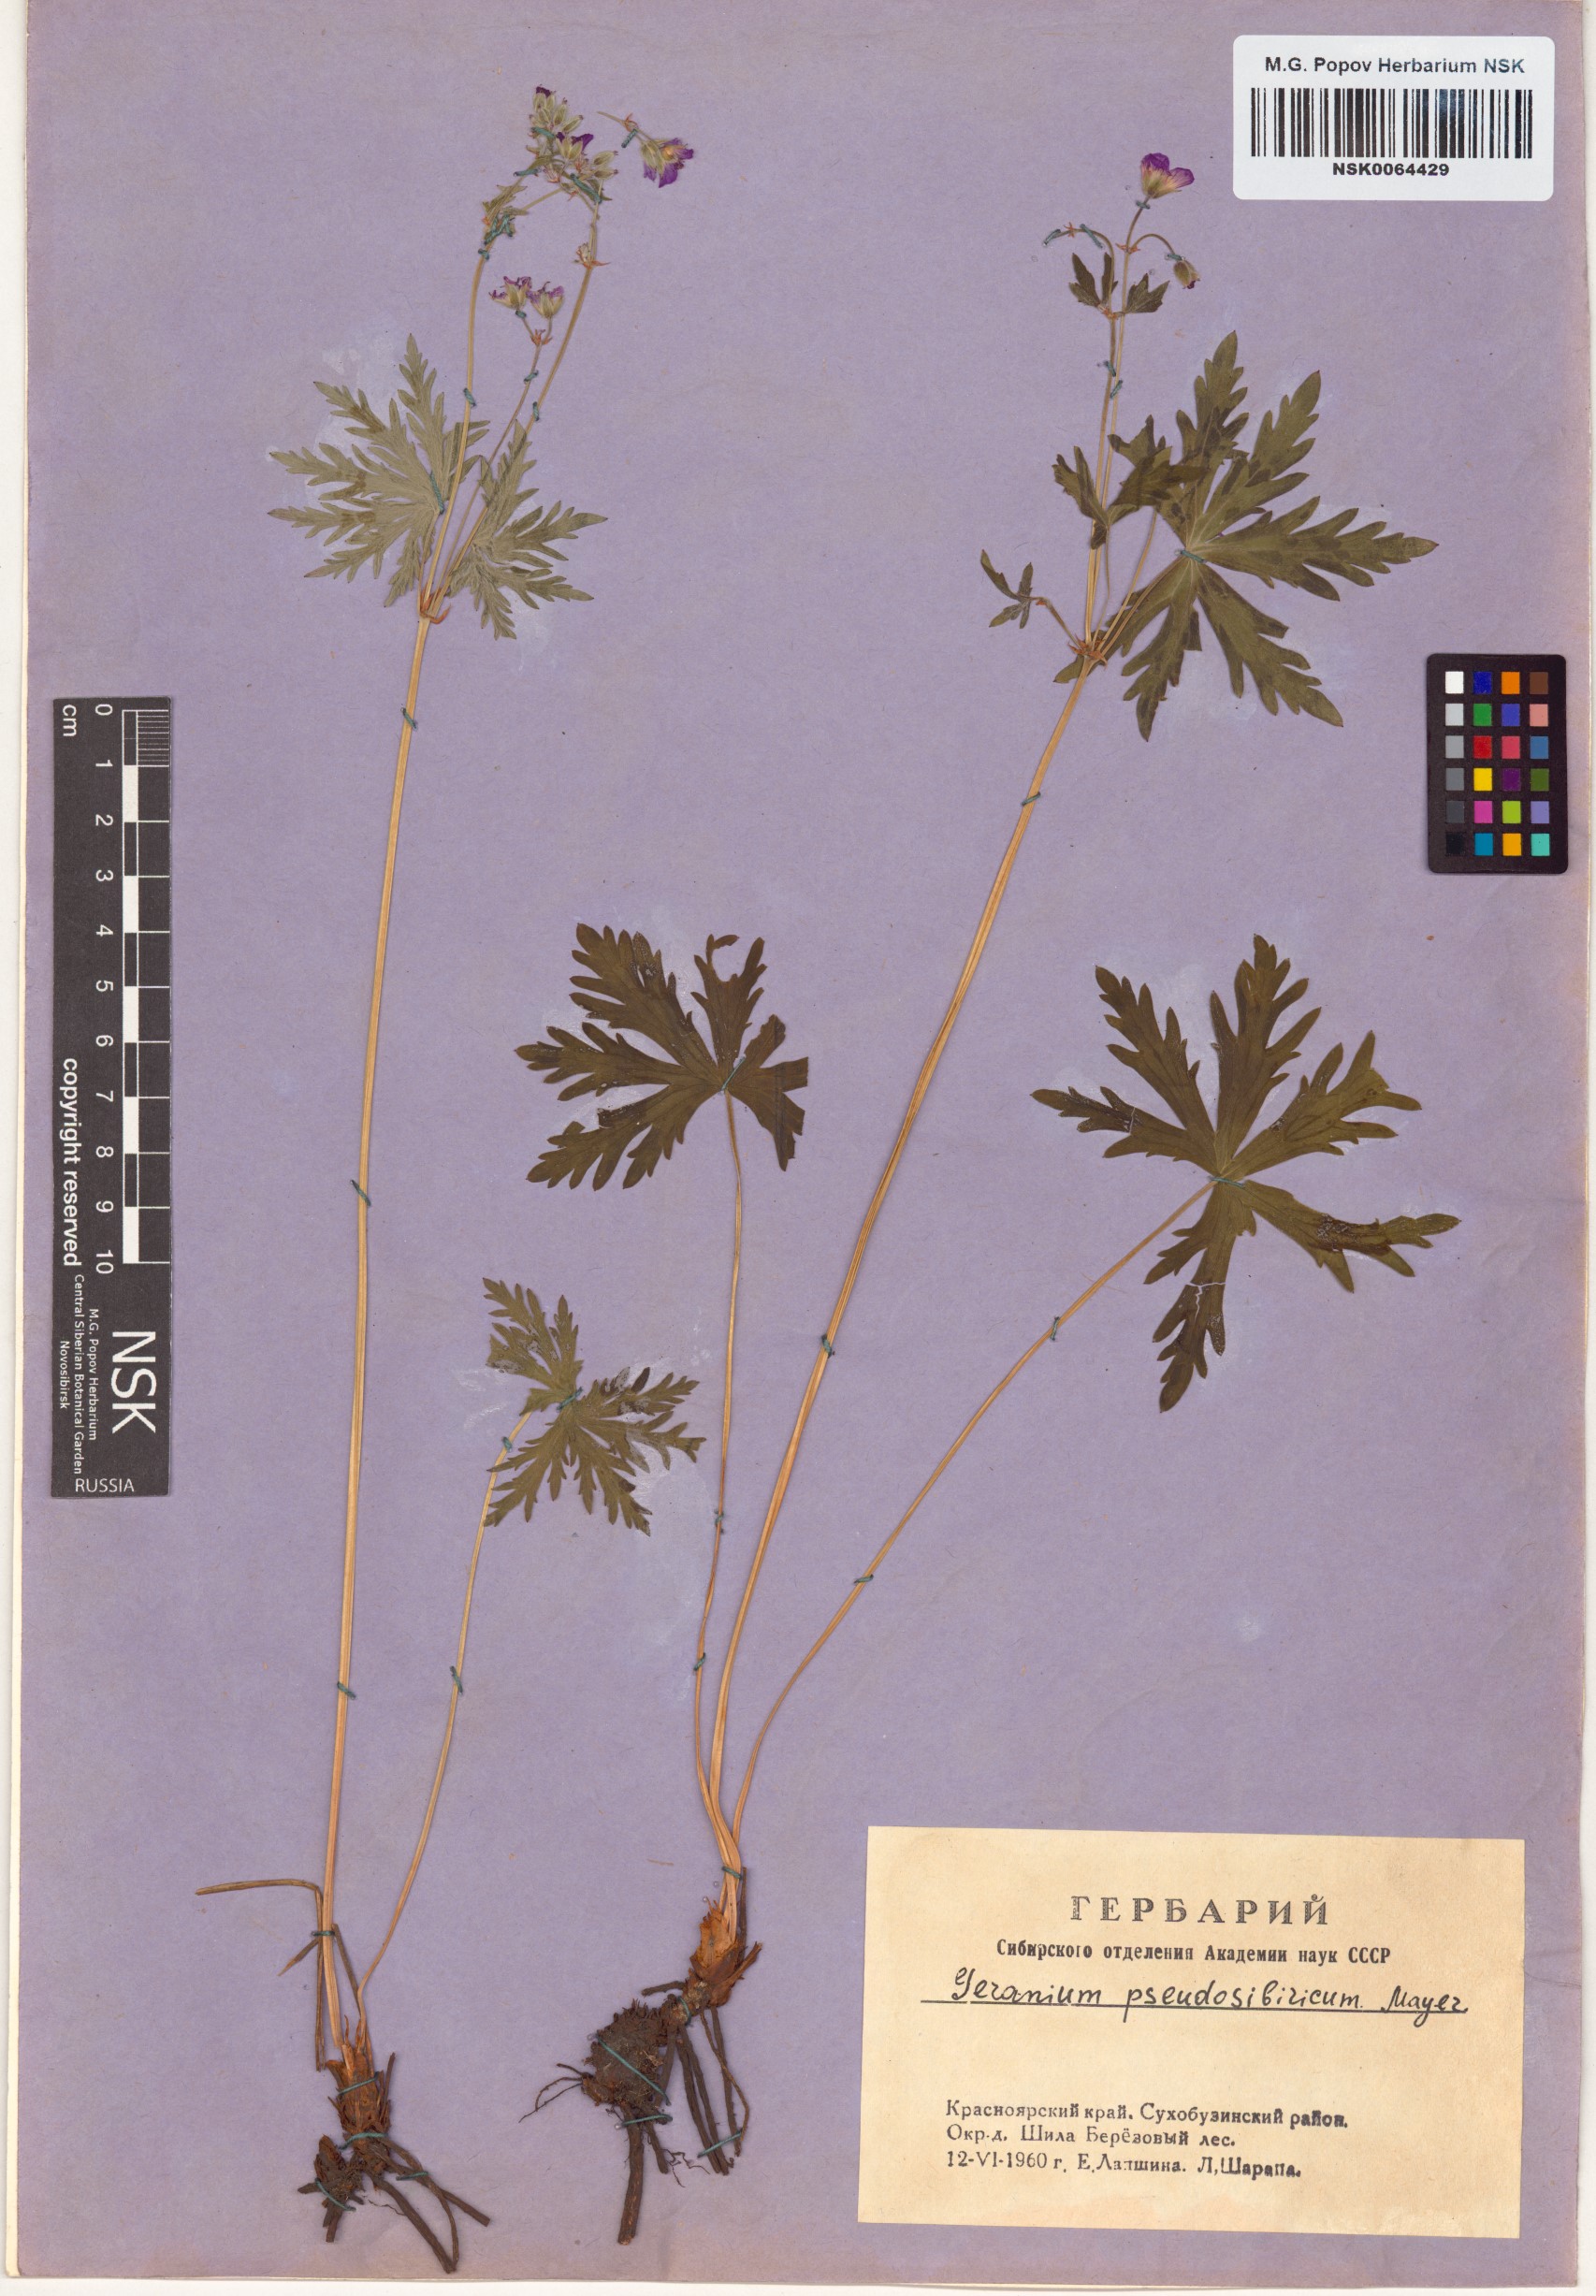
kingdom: Plantae
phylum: Tracheophyta
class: Magnoliopsida
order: Geraniales
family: Geraniaceae
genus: Geranium
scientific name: Geranium pseudosibiricum
